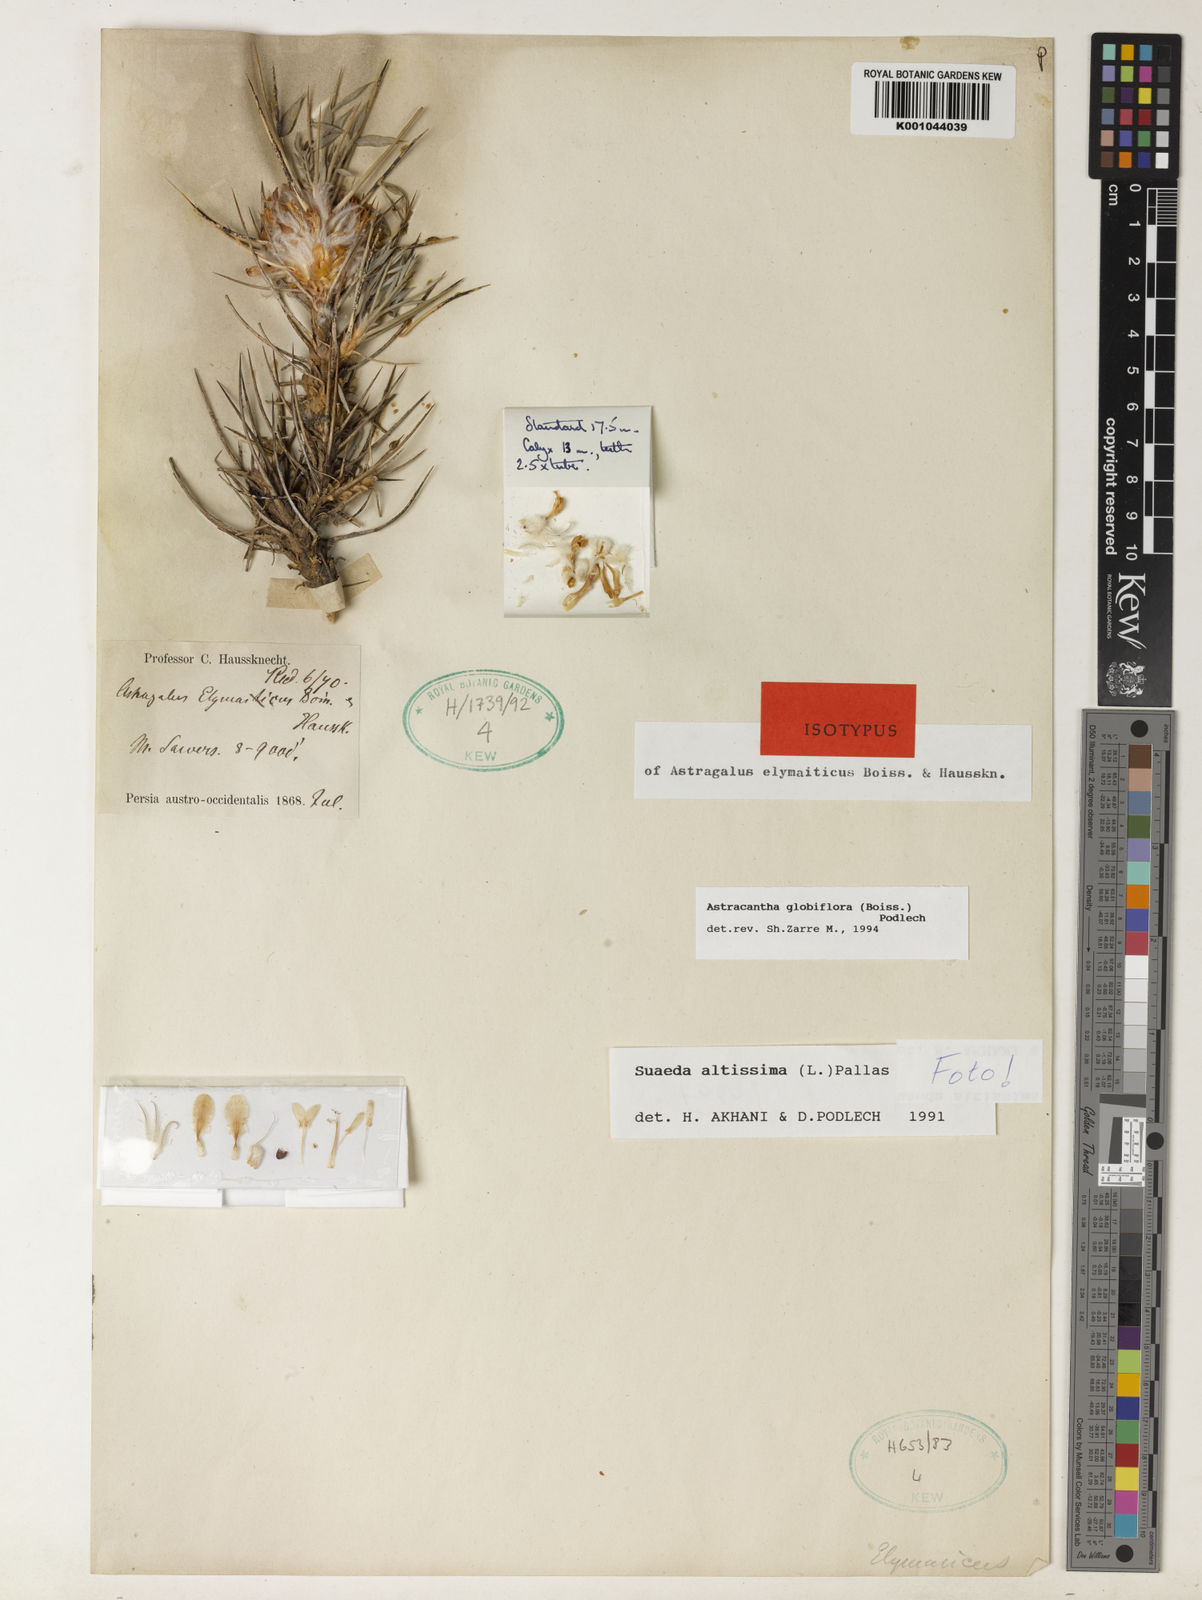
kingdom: Plantae
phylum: Tracheophyta
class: Magnoliopsida
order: Fabales
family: Fabaceae
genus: Astragalus
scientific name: Astragalus globiflorus
